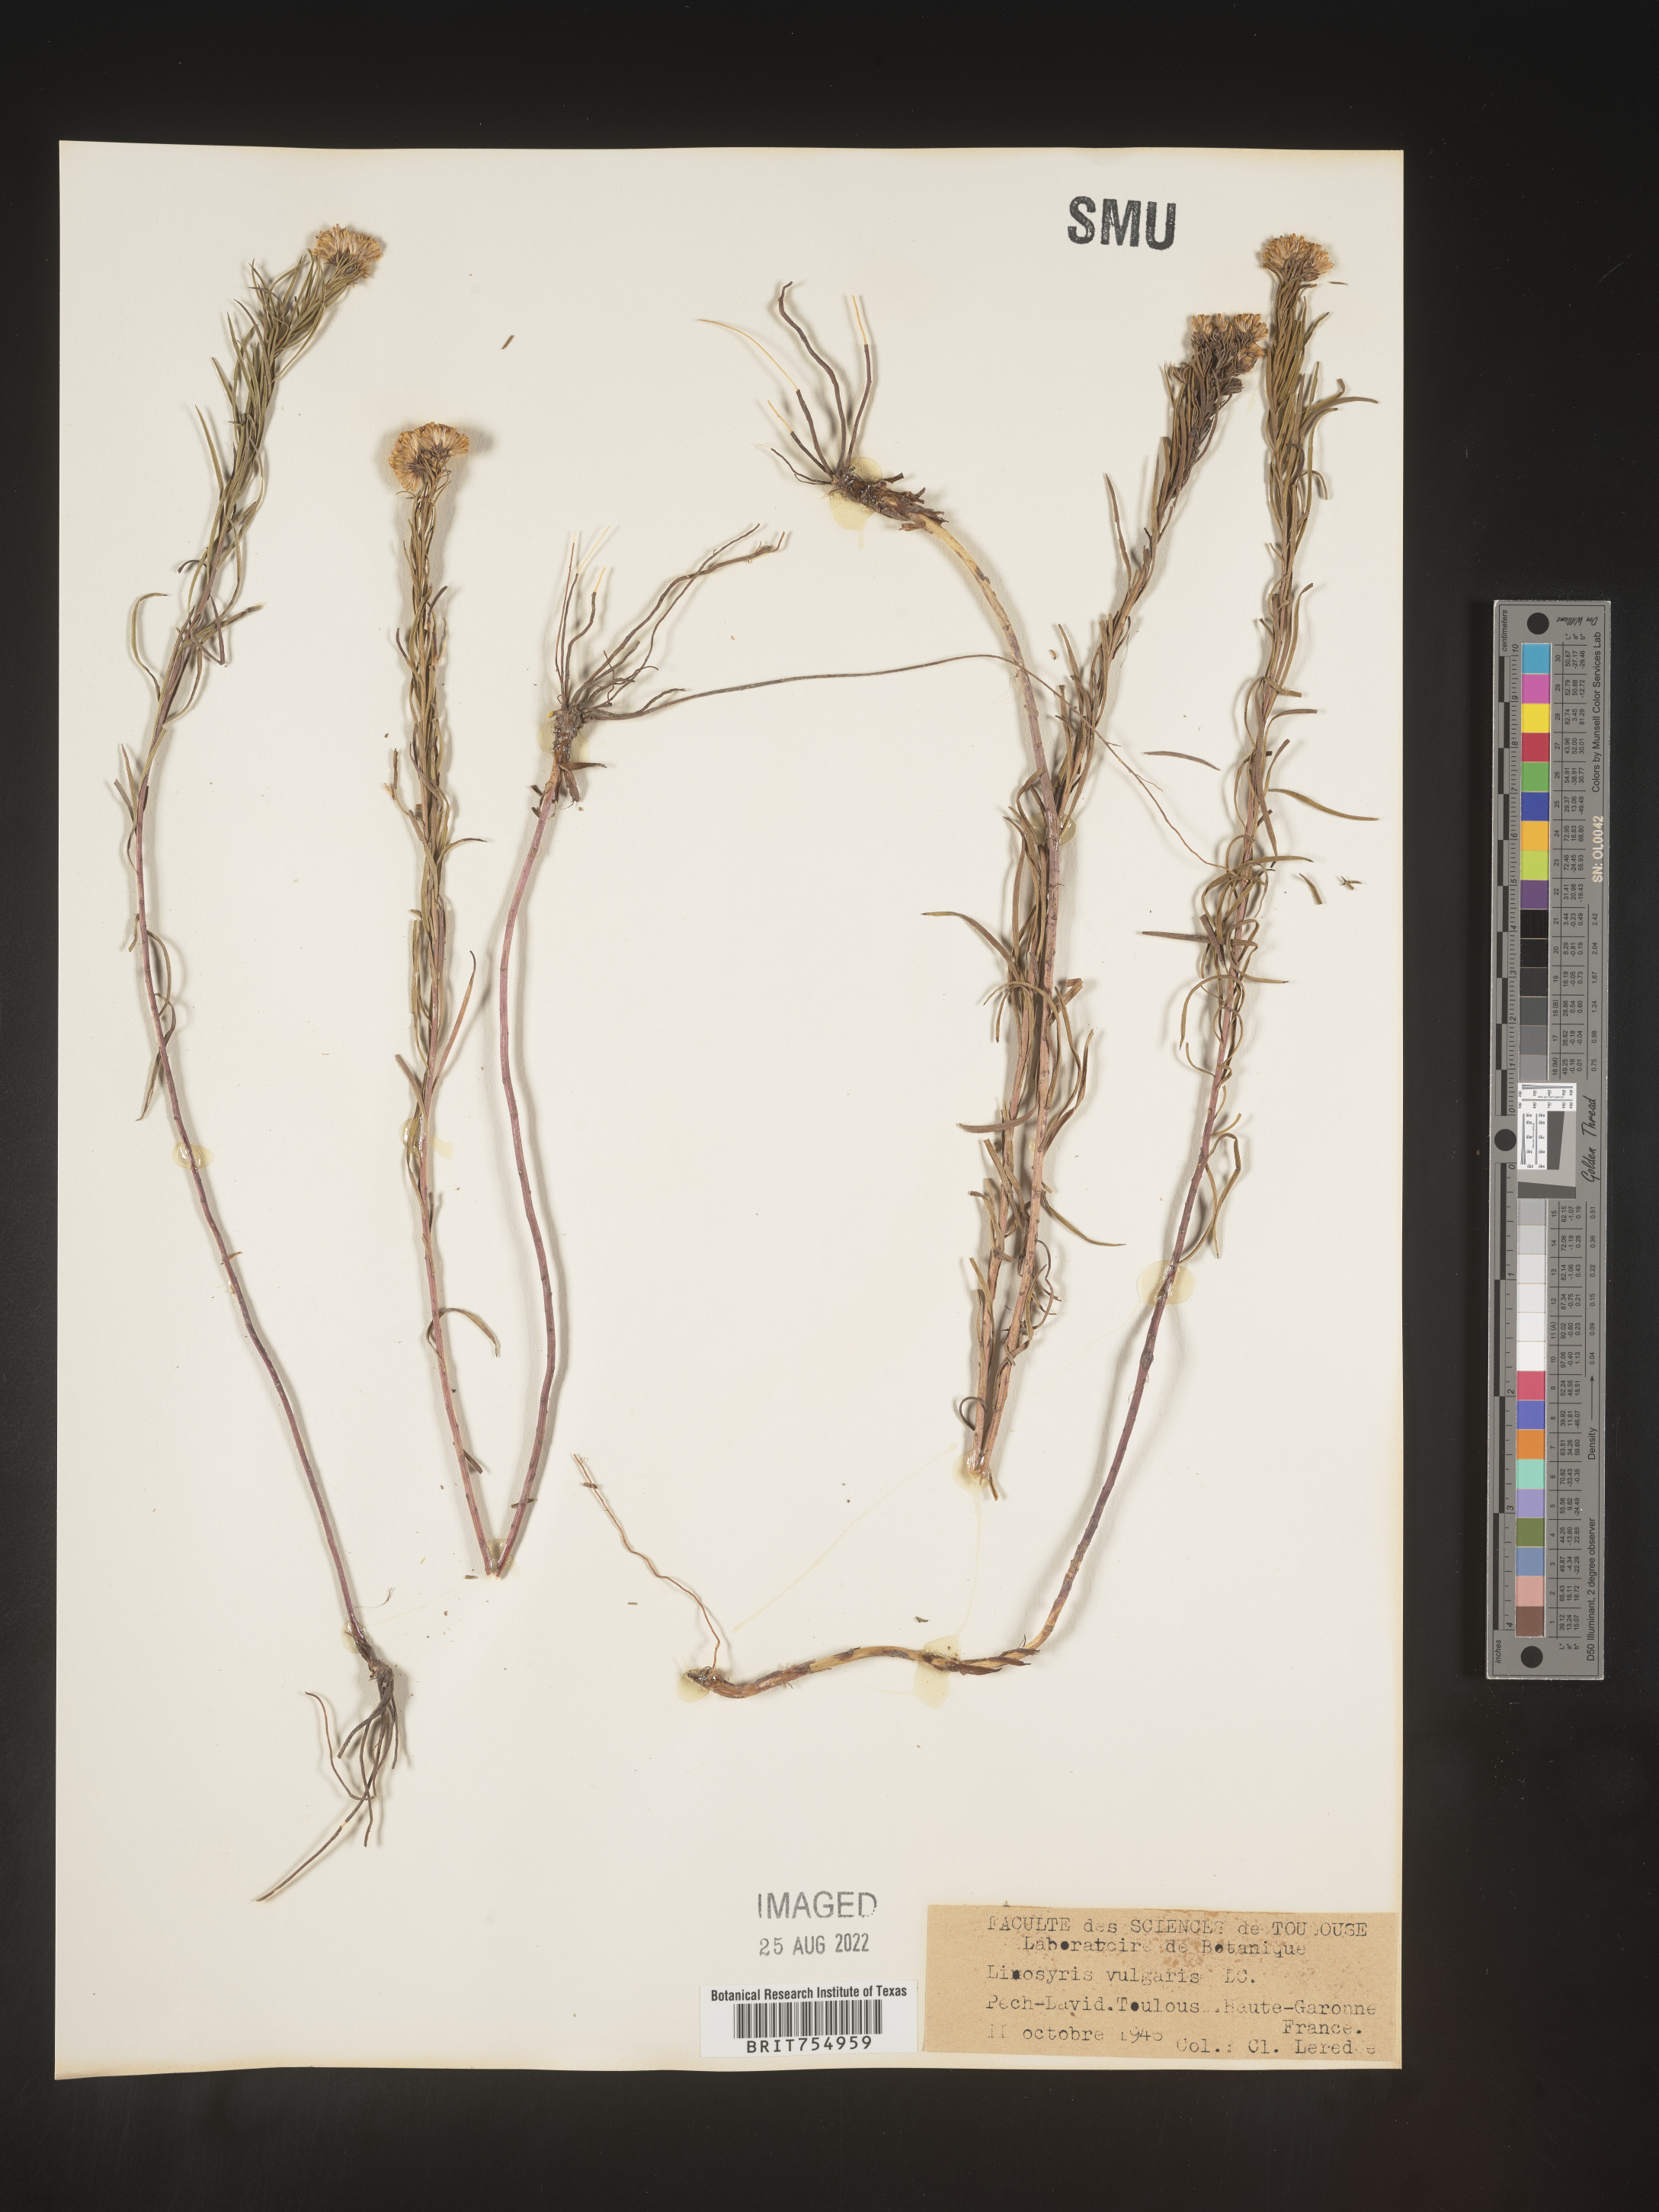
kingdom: Plantae
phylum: Tracheophyta
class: Magnoliopsida
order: Asterales
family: Asteraceae
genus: Symphyotrichum
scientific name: Symphyotrichum
